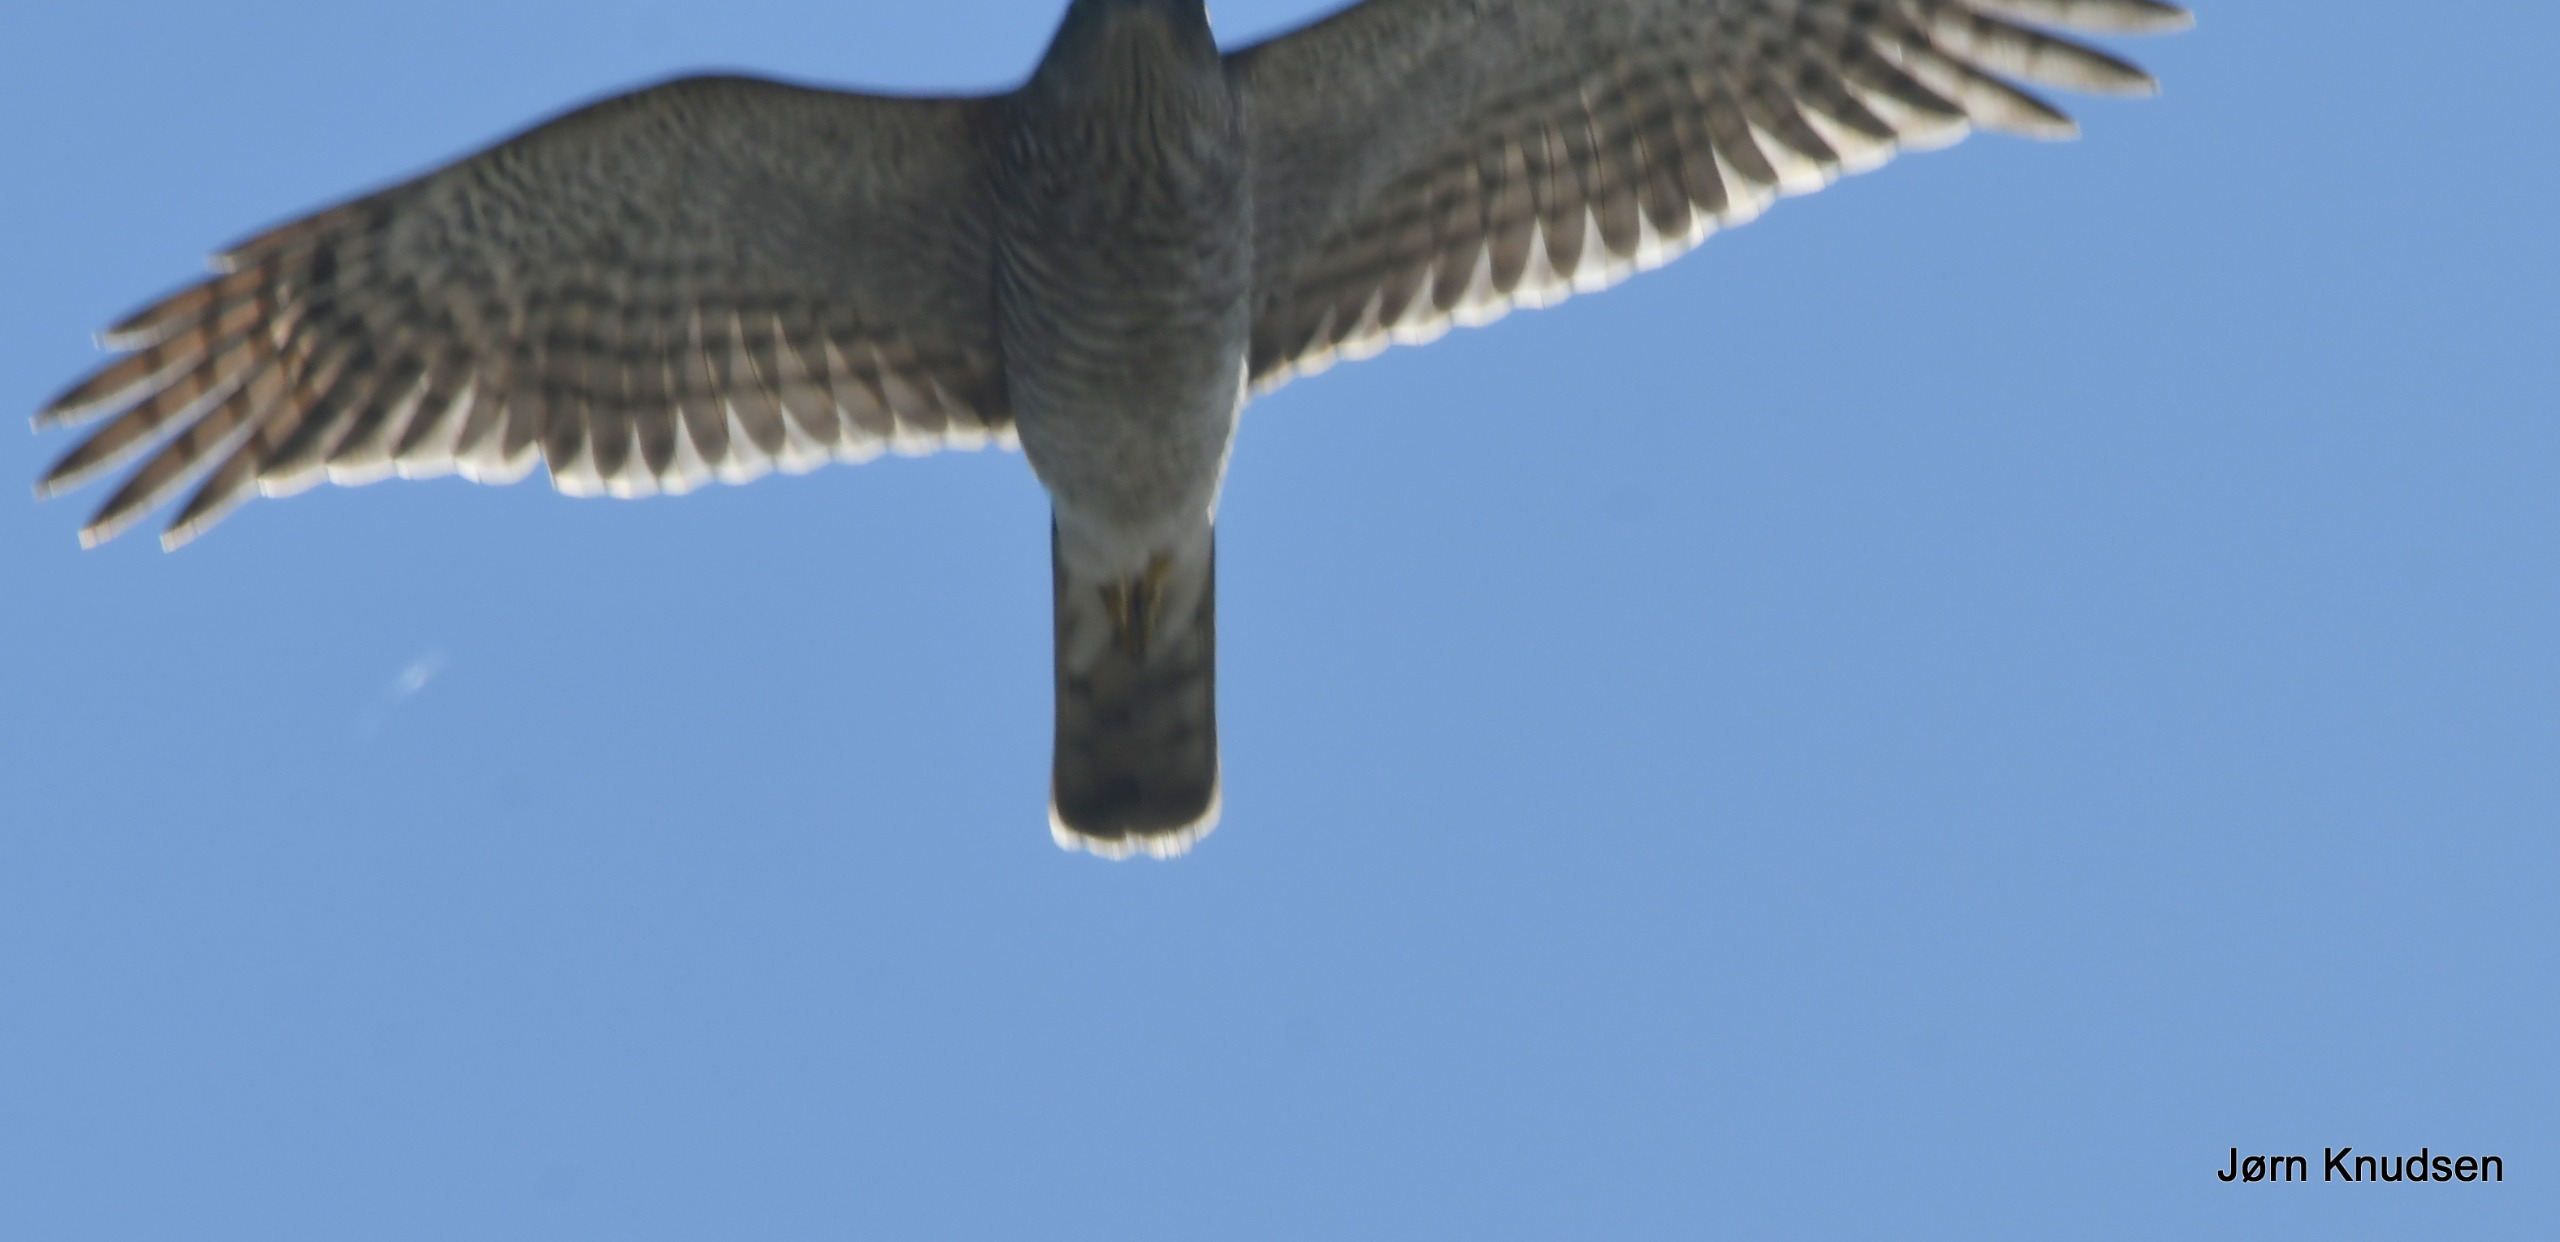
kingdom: Animalia
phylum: Chordata
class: Aves
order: Accipitriformes
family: Accipitridae
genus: Accipiter
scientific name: Accipiter nisus
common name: Spurvehøg
